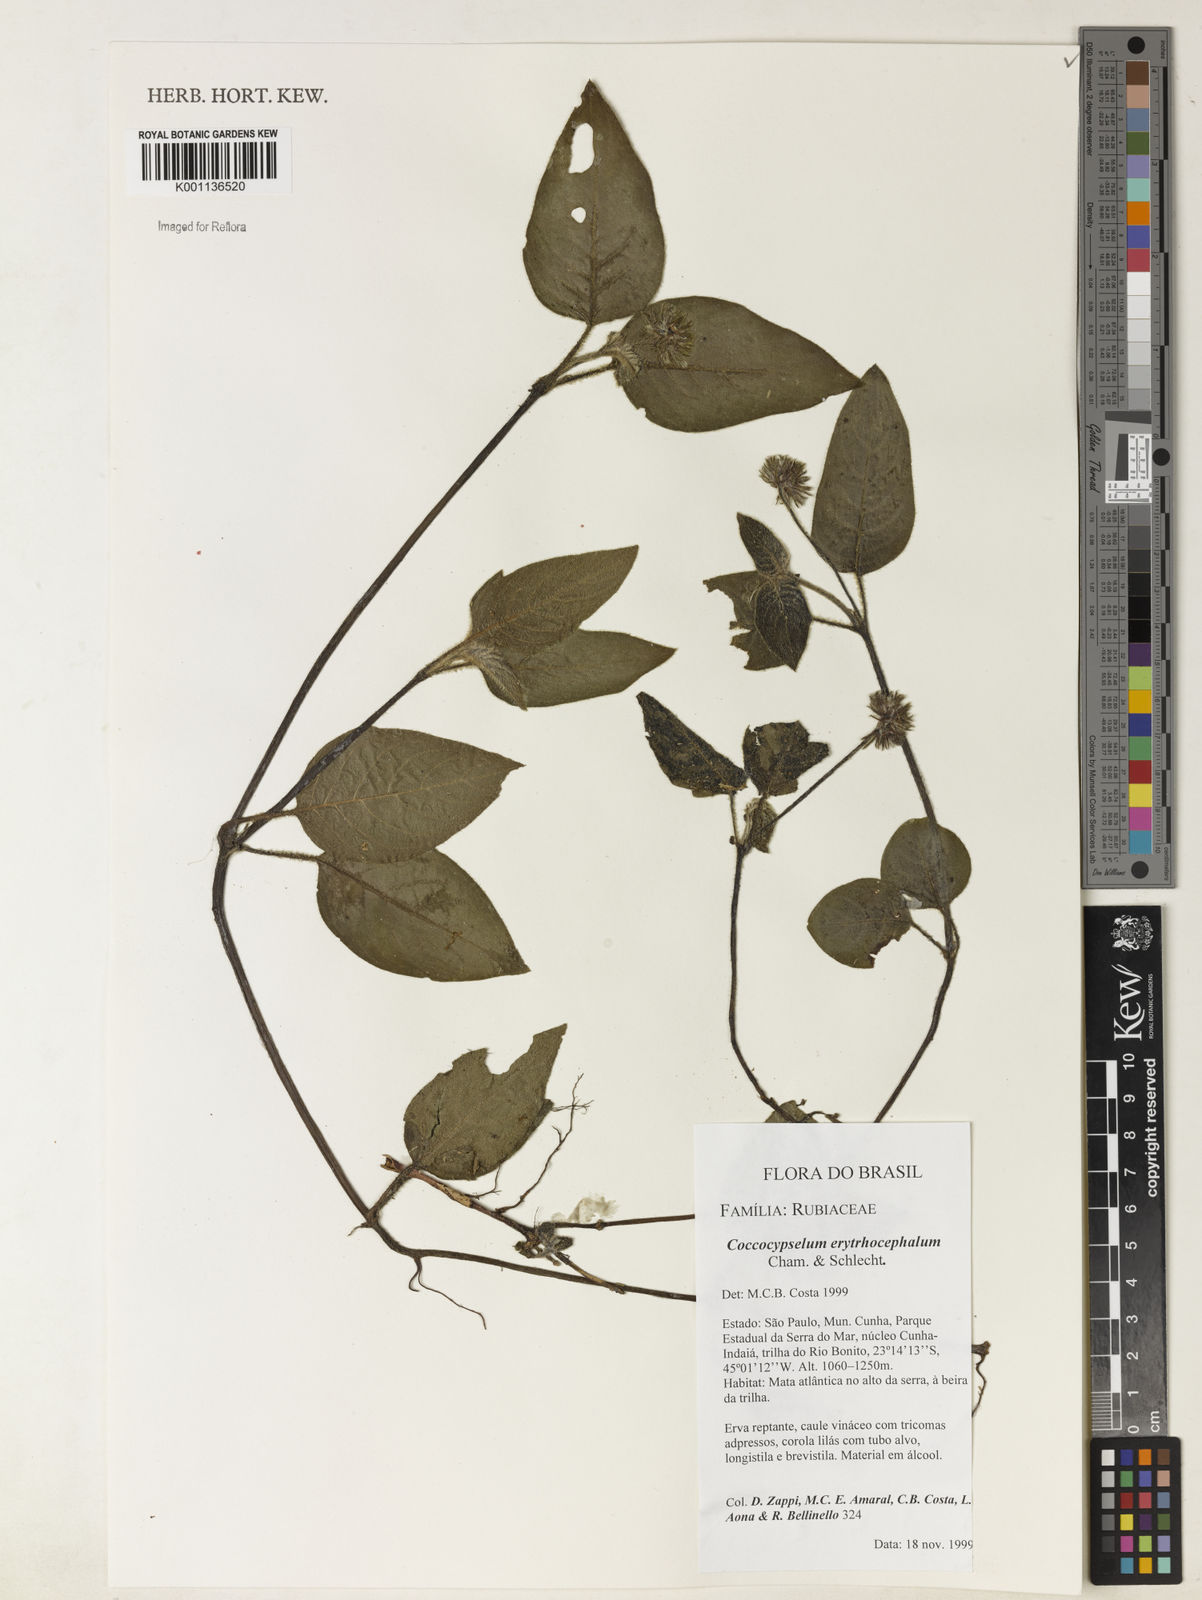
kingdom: Plantae
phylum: Tracheophyta
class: Magnoliopsida
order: Gentianales
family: Rubiaceae
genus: Coccocypselum
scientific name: Coccocypselum erythrocephalum
